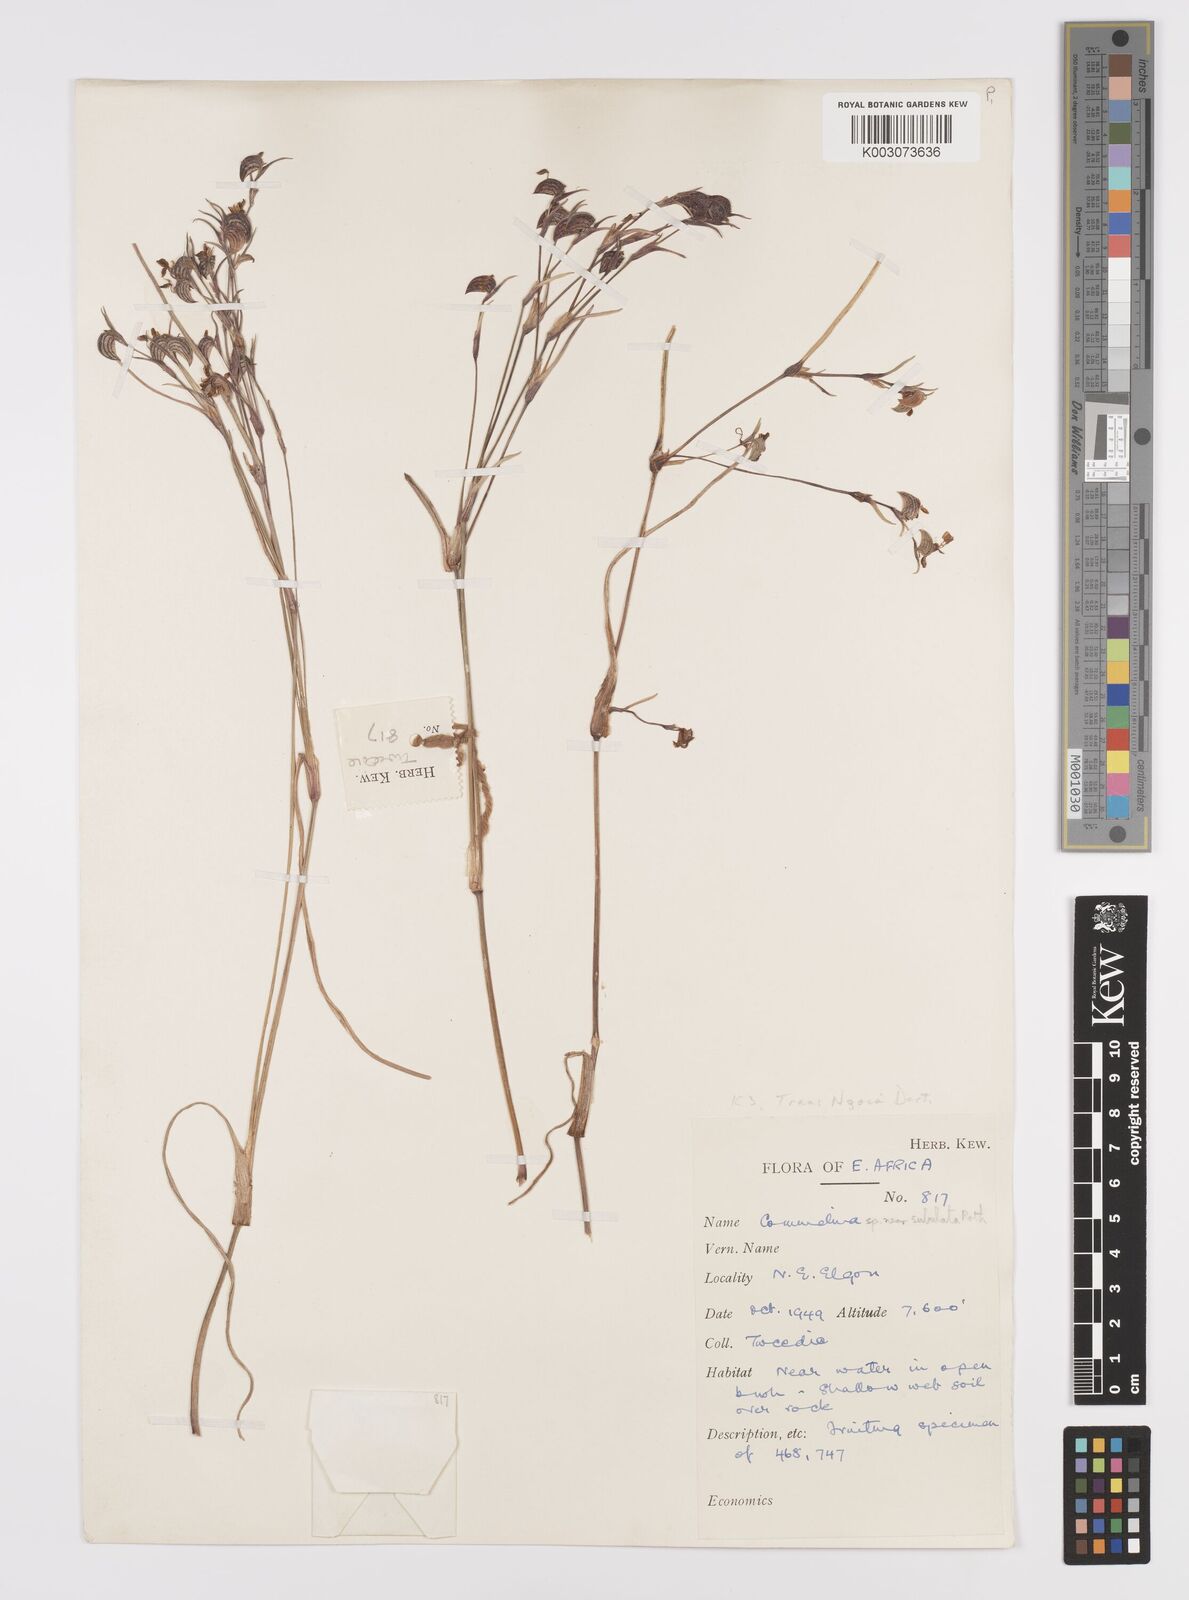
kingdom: Plantae
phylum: Tracheophyta
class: Liliopsida
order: Commelinales
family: Commelinaceae
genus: Commelina
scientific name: Commelina purpurea
